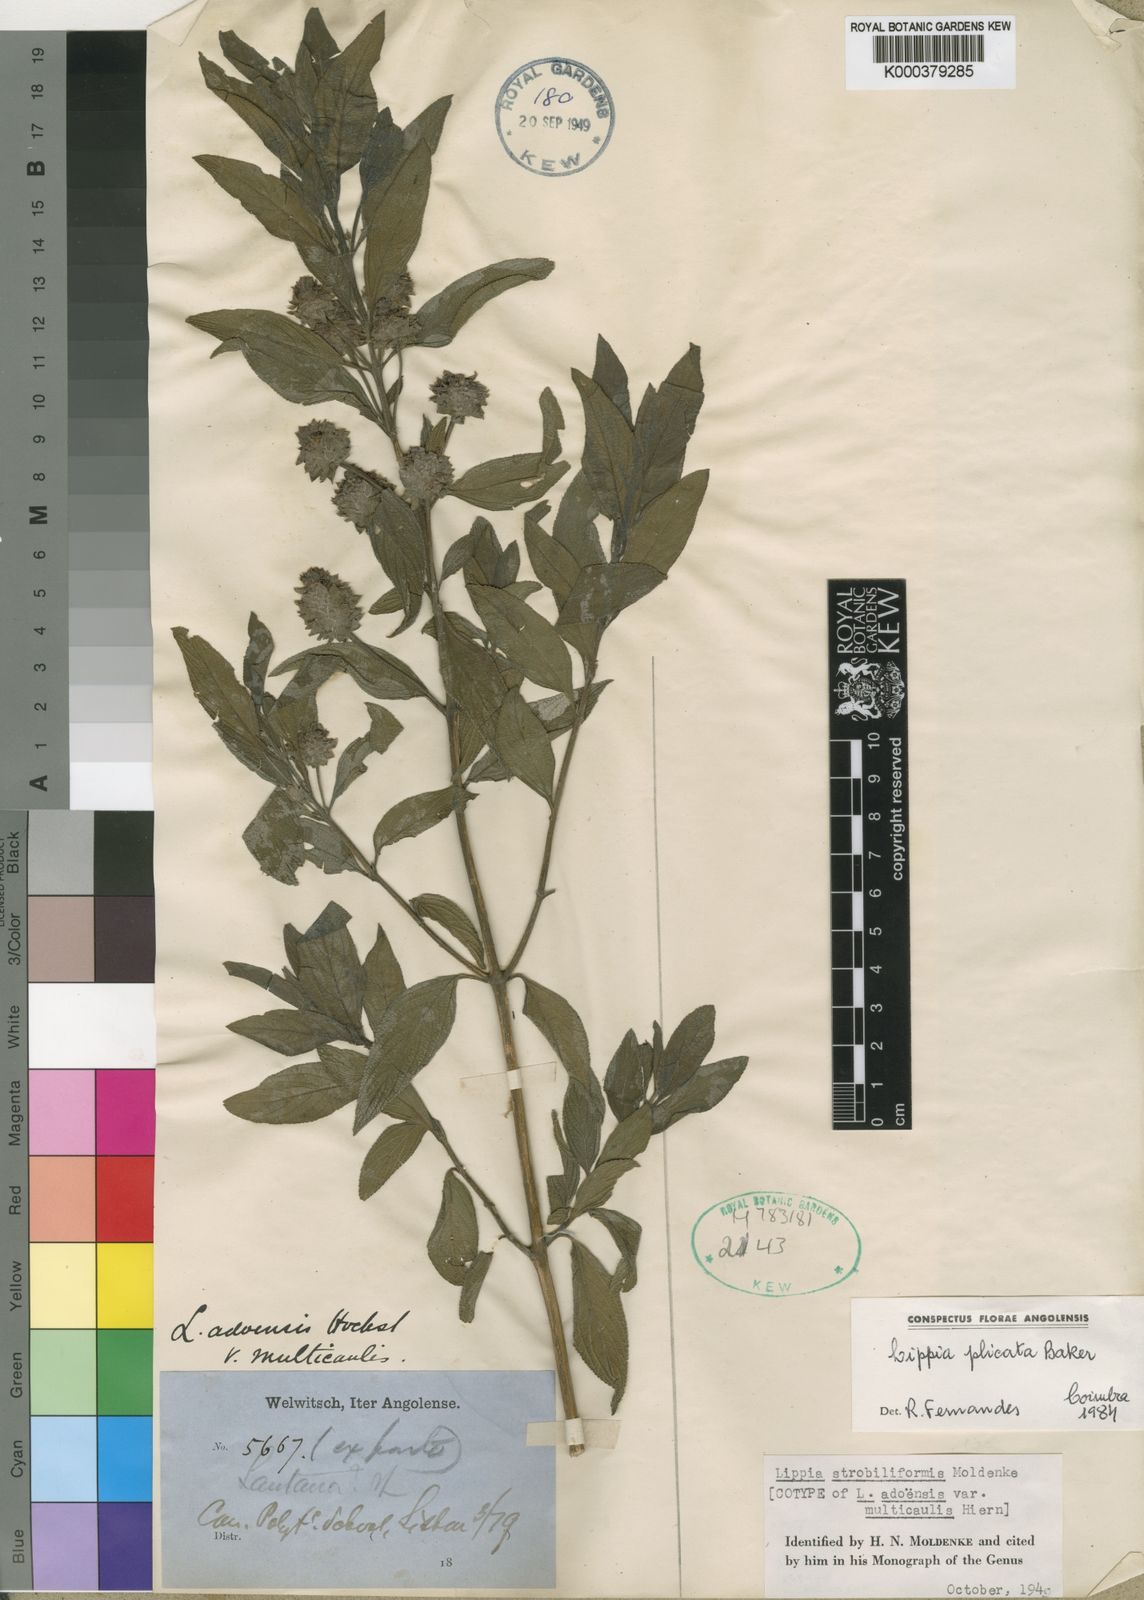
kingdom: Plantae
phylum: Tracheophyta
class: Magnoliopsida
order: Lamiales
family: Verbenaceae
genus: Lippia
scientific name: Lippia plicata
